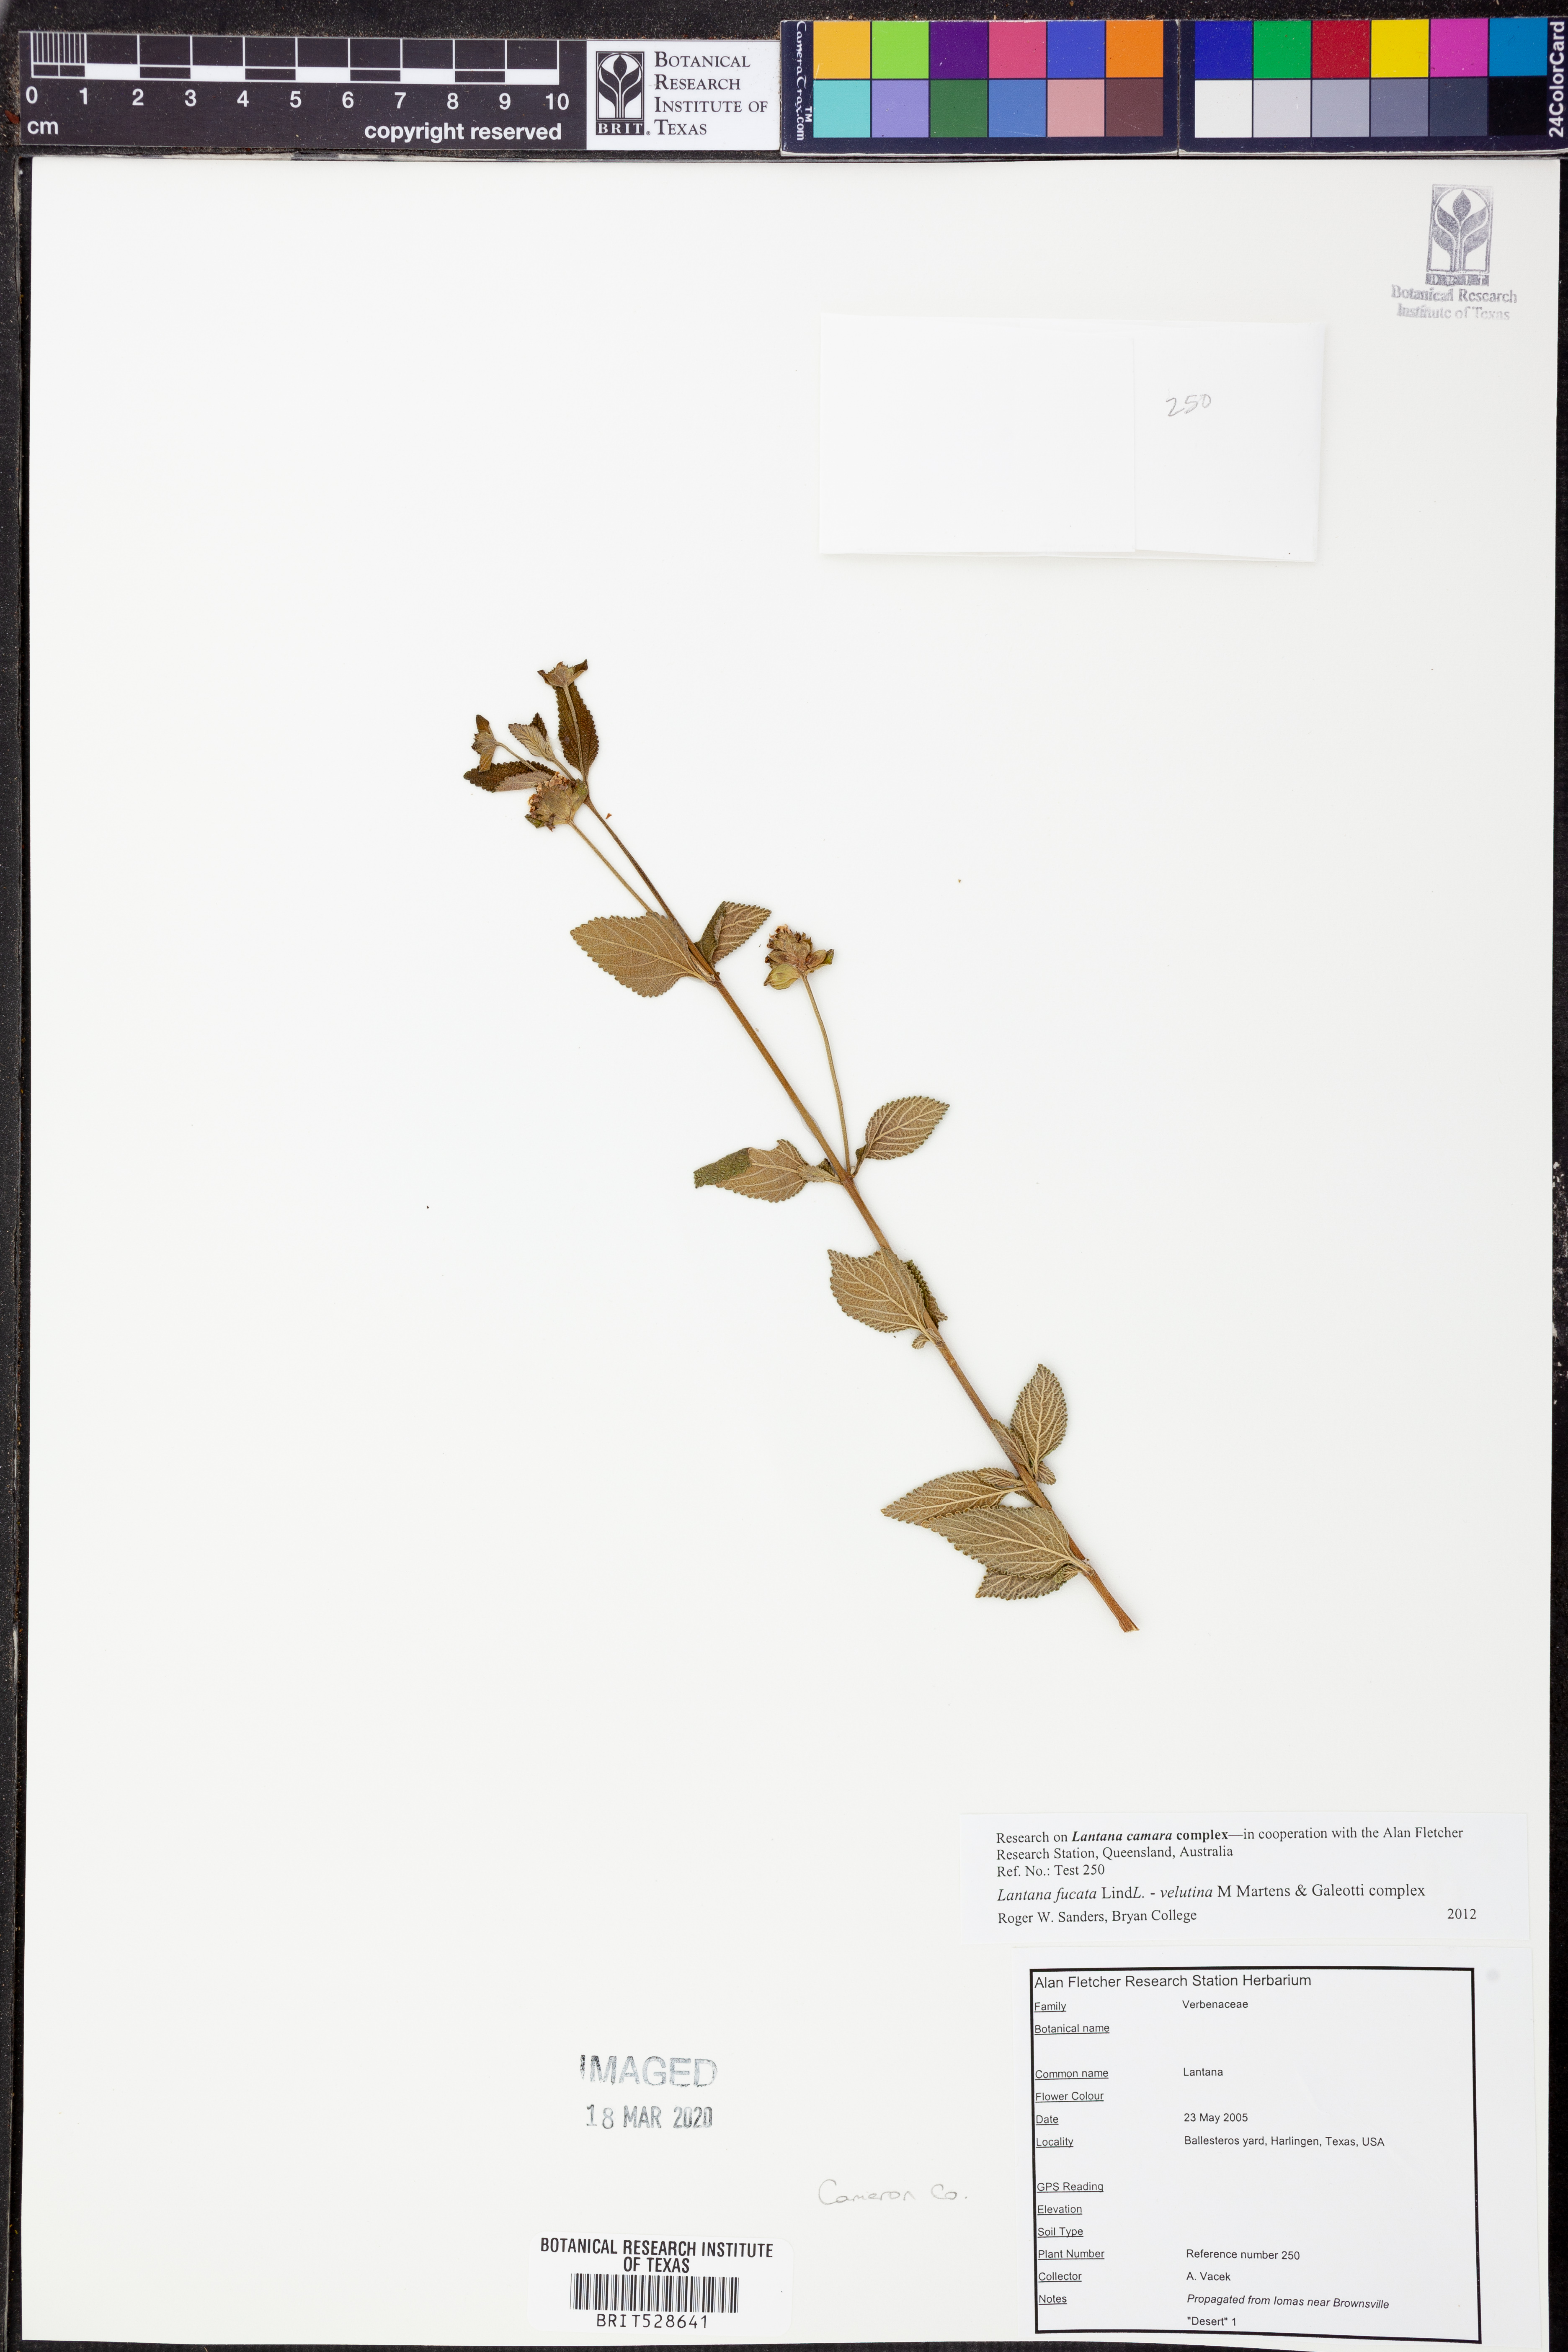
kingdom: Plantae
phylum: Tracheophyta
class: Magnoliopsida
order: Lamiales
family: Verbenaceae
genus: Lantana
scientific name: Lantana fucata
